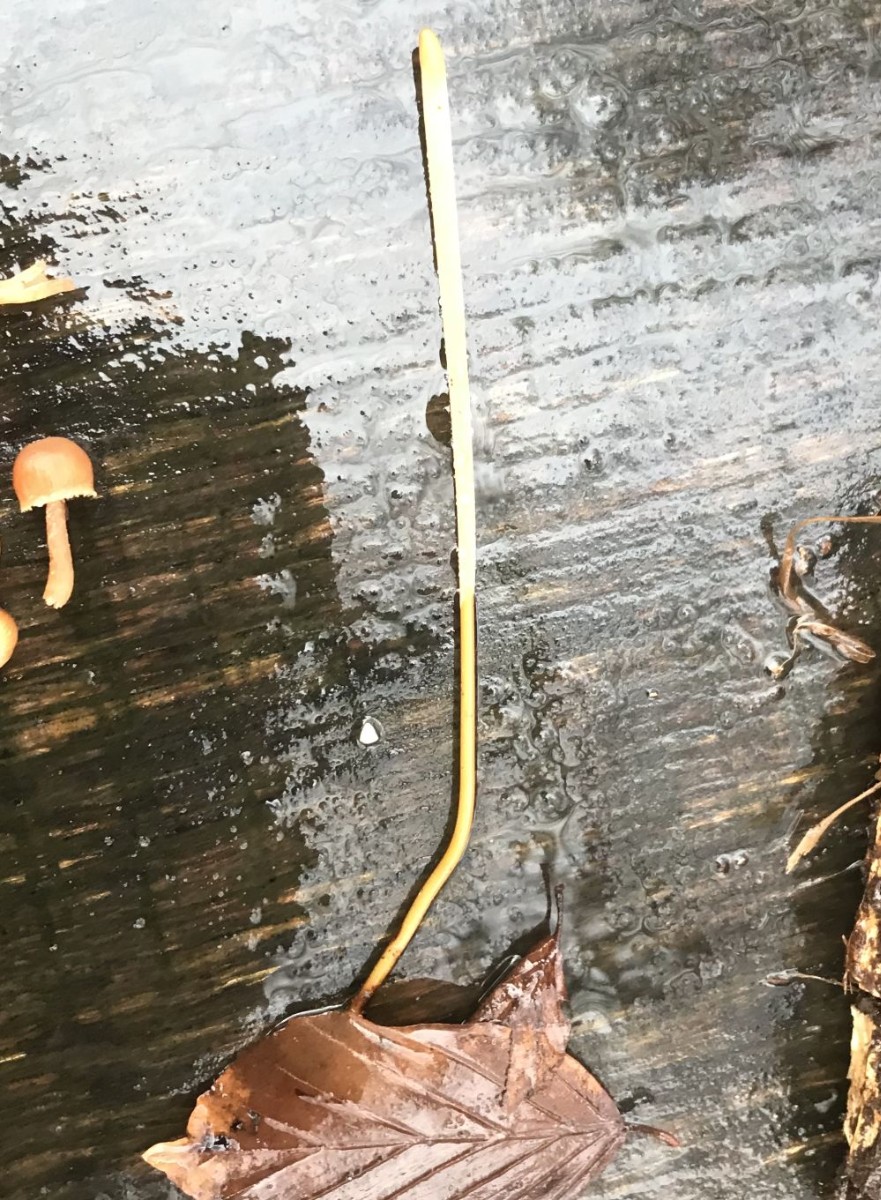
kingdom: Fungi
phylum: Basidiomycota
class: Agaricomycetes
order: Agaricales
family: Typhulaceae
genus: Typhula
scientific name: Typhula fistulosa
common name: pibet rørkølle
